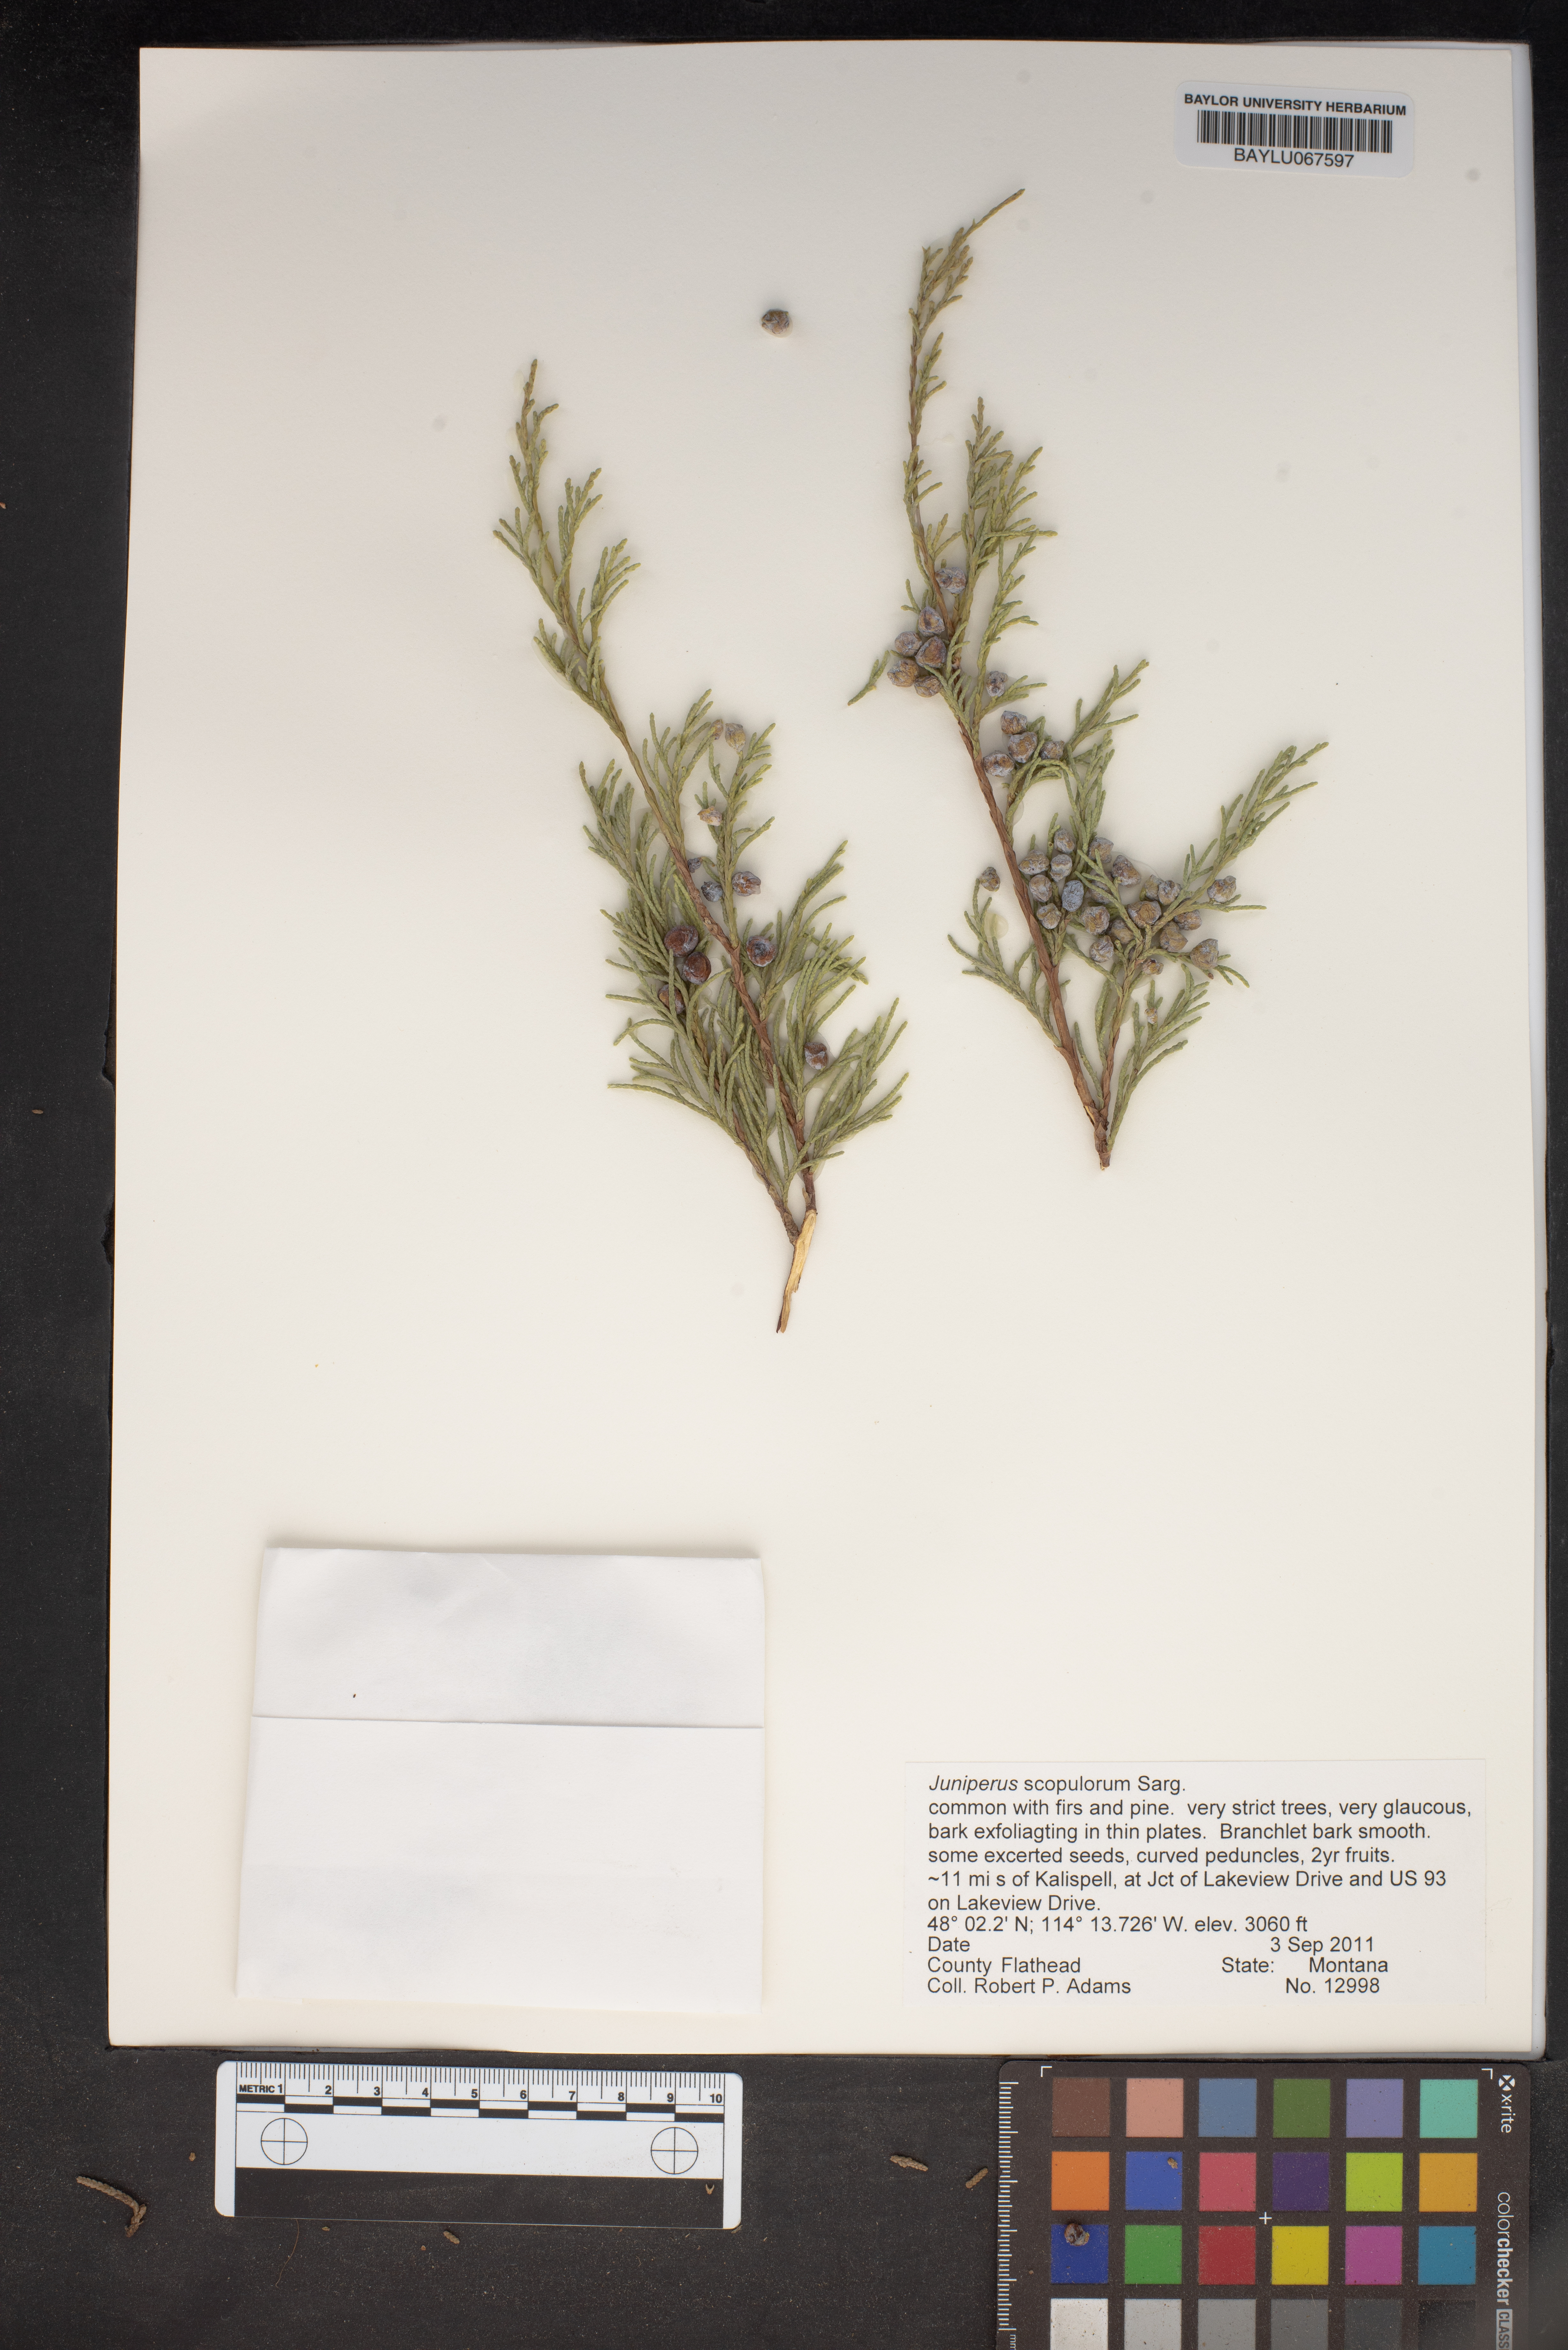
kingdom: Plantae
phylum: Tracheophyta
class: Pinopsida
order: Pinales
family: Cupressaceae
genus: Juniperus
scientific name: Juniperus scopulorum
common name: Rocky mountain juniper
